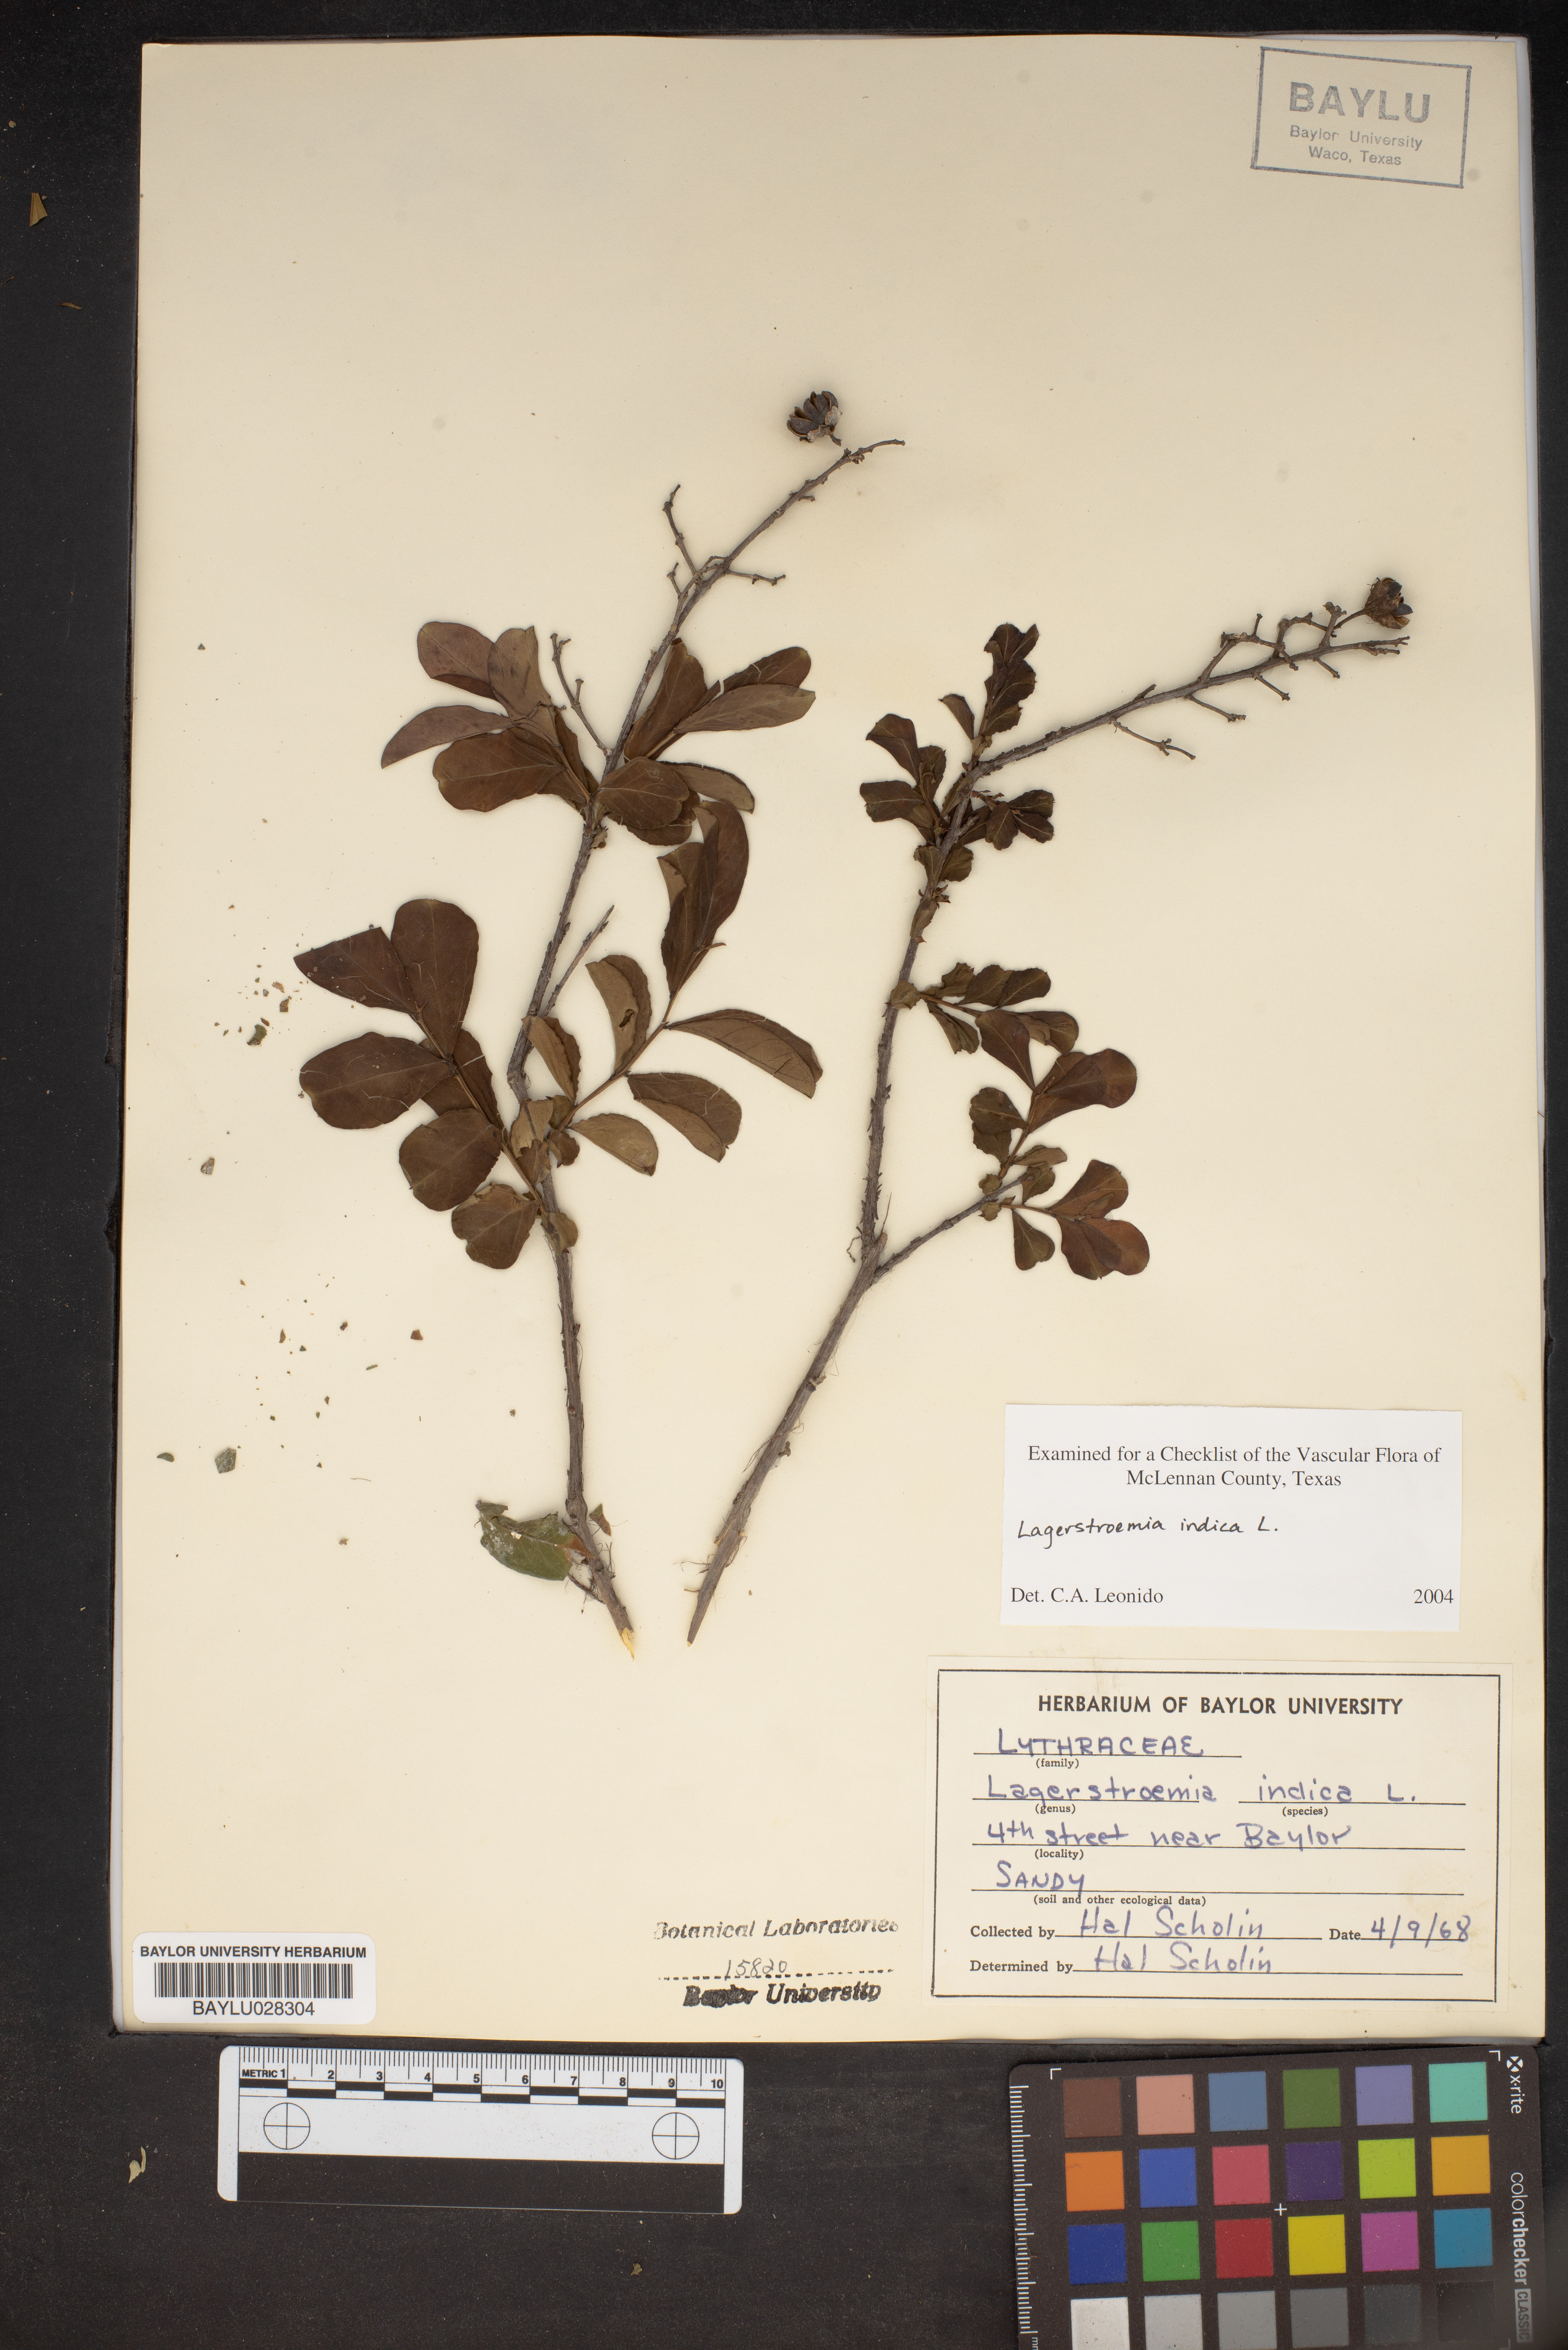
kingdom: Plantae
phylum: Tracheophyta
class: Magnoliopsida
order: Myrtales
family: Lythraceae
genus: Lagerstroemia
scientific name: Lagerstroemia indica
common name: Crape-myrtle
